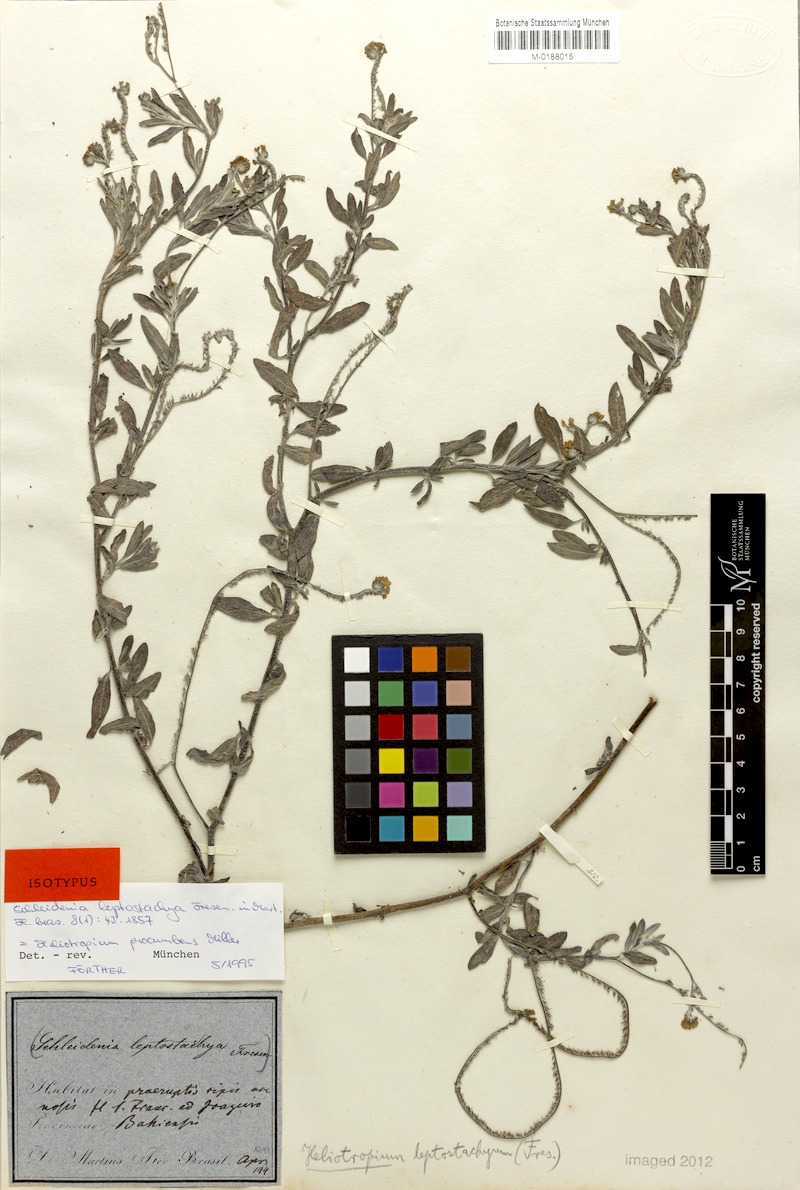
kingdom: Plantae
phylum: Tracheophyta
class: Magnoliopsida
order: Boraginales
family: Heliotropiaceae
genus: Euploca
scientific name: Euploca procumbens
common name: Fourspike heliotrope
